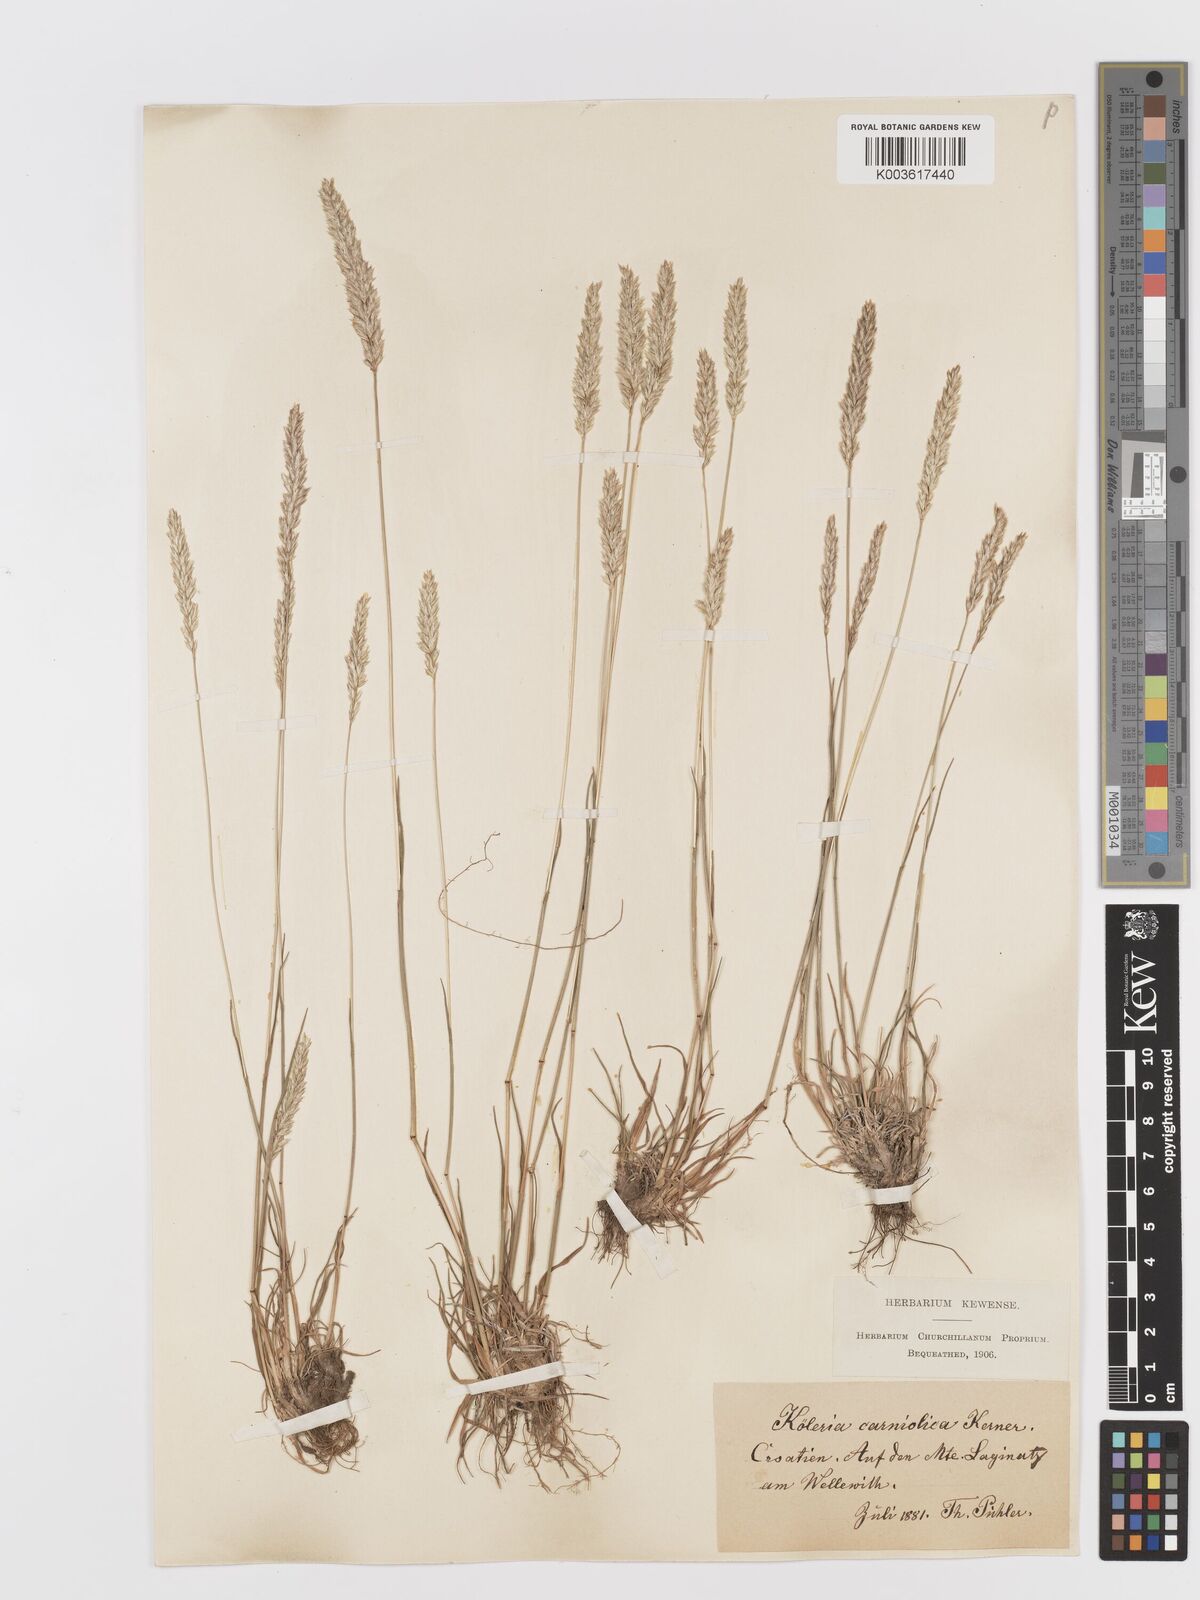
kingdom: Plantae
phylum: Tracheophyta
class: Liliopsida
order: Poales
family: Poaceae
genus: Koeleria
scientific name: Koeleria eriostachya
